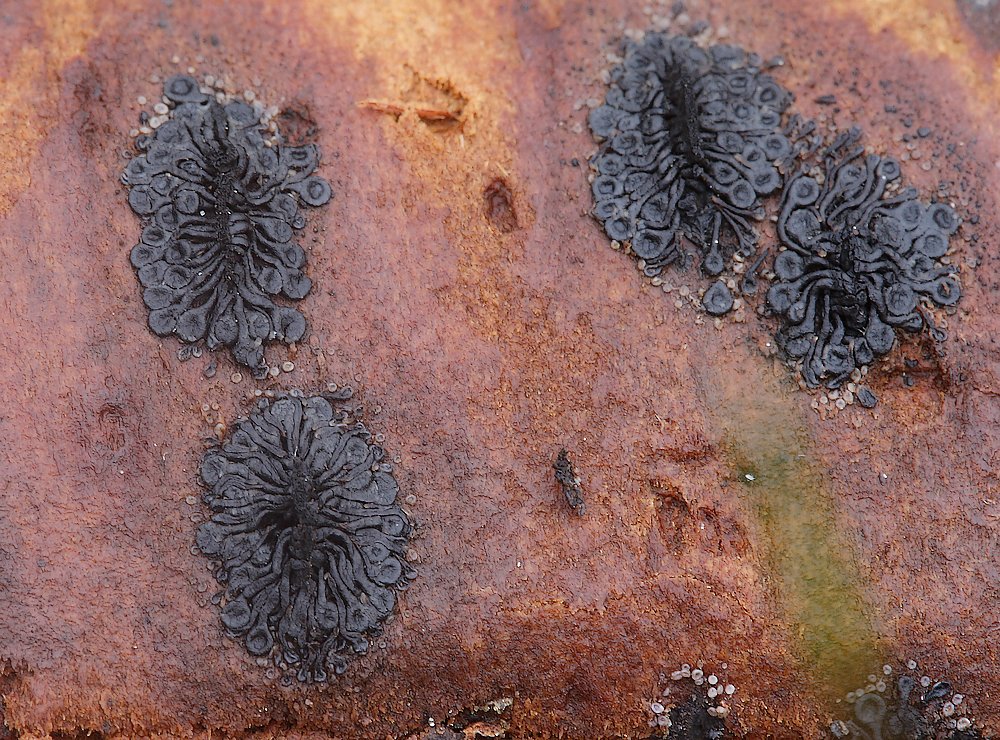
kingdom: Fungi
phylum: Ascomycota
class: Sordariomycetes
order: Calosphaeriales
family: Calosphaeriaceae
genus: Calosphaeria
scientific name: Calosphaeria pulchella
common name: smuk slyngkerne
